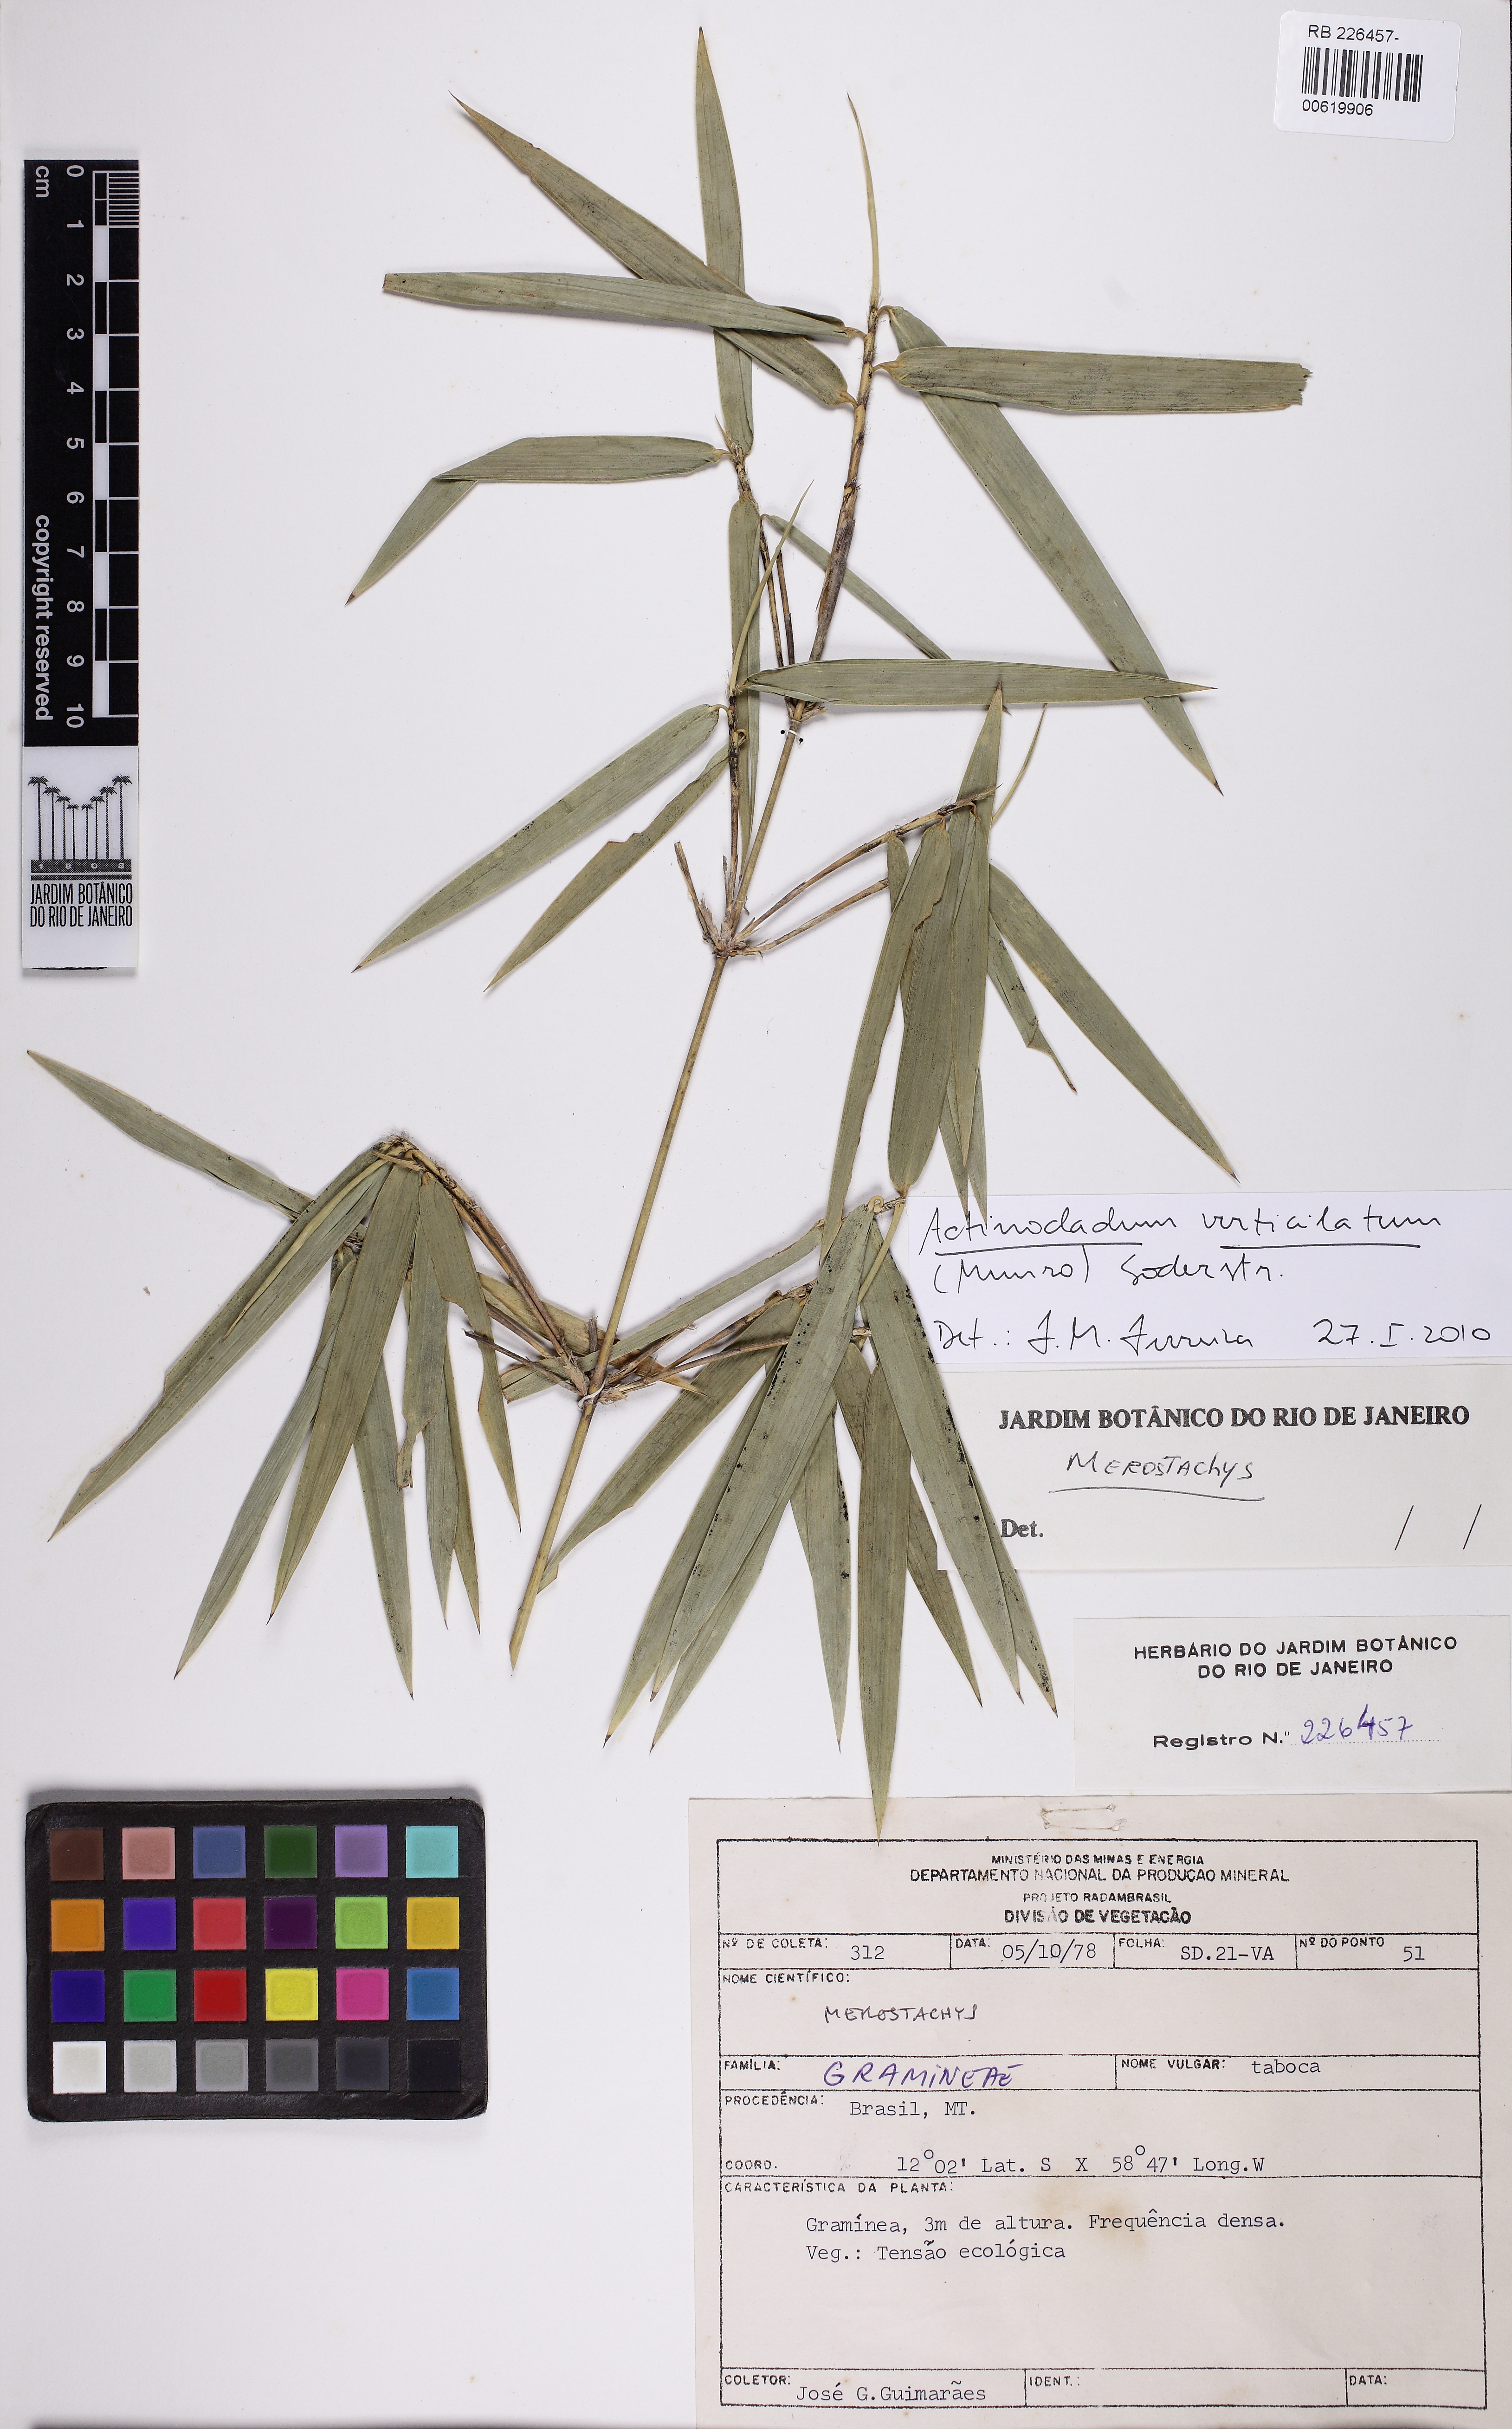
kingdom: Plantae
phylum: Tracheophyta
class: Liliopsida
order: Poales
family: Poaceae
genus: Actinocladum
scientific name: Actinocladum verticillatum
